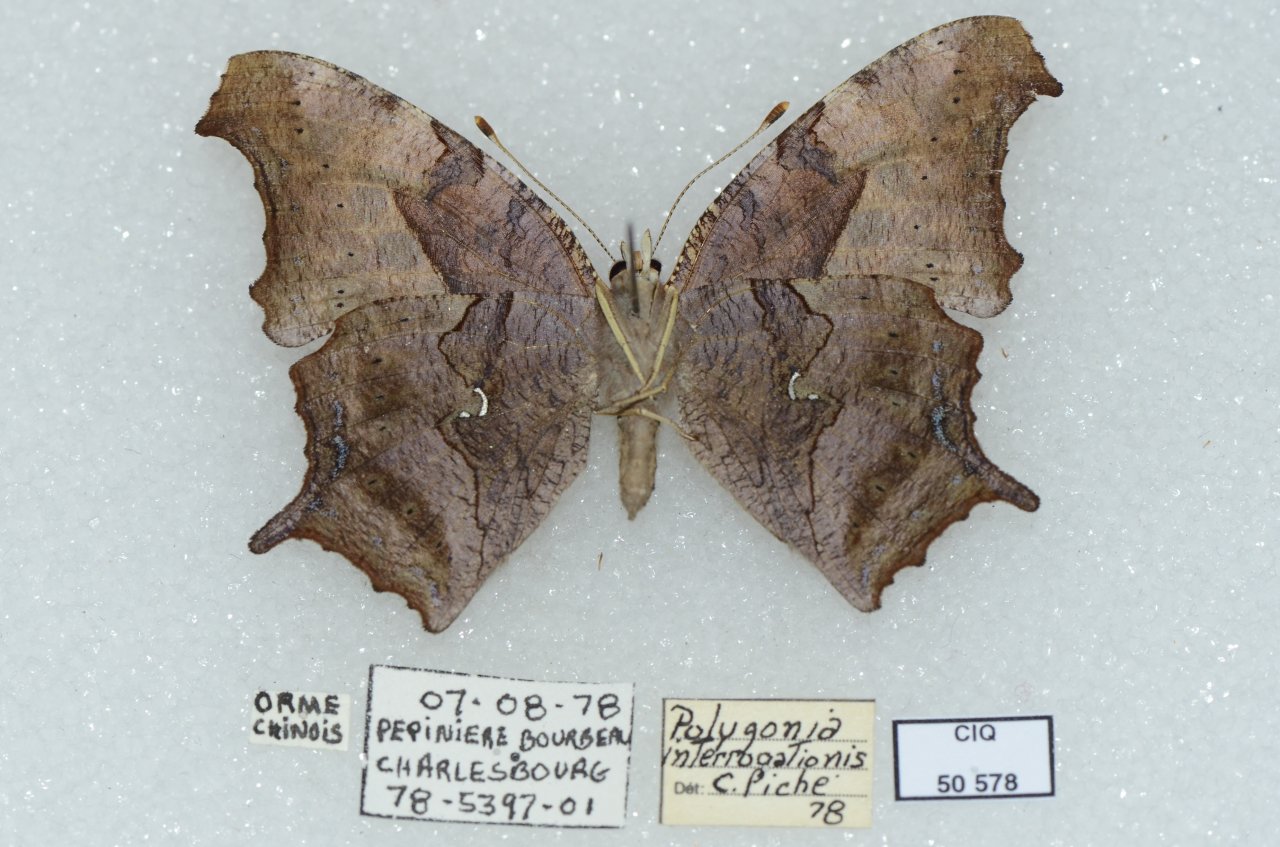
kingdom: Animalia
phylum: Arthropoda
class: Insecta
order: Lepidoptera
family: Nymphalidae
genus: Polygonia
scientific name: Polygonia interrogationis
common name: Question Mark
